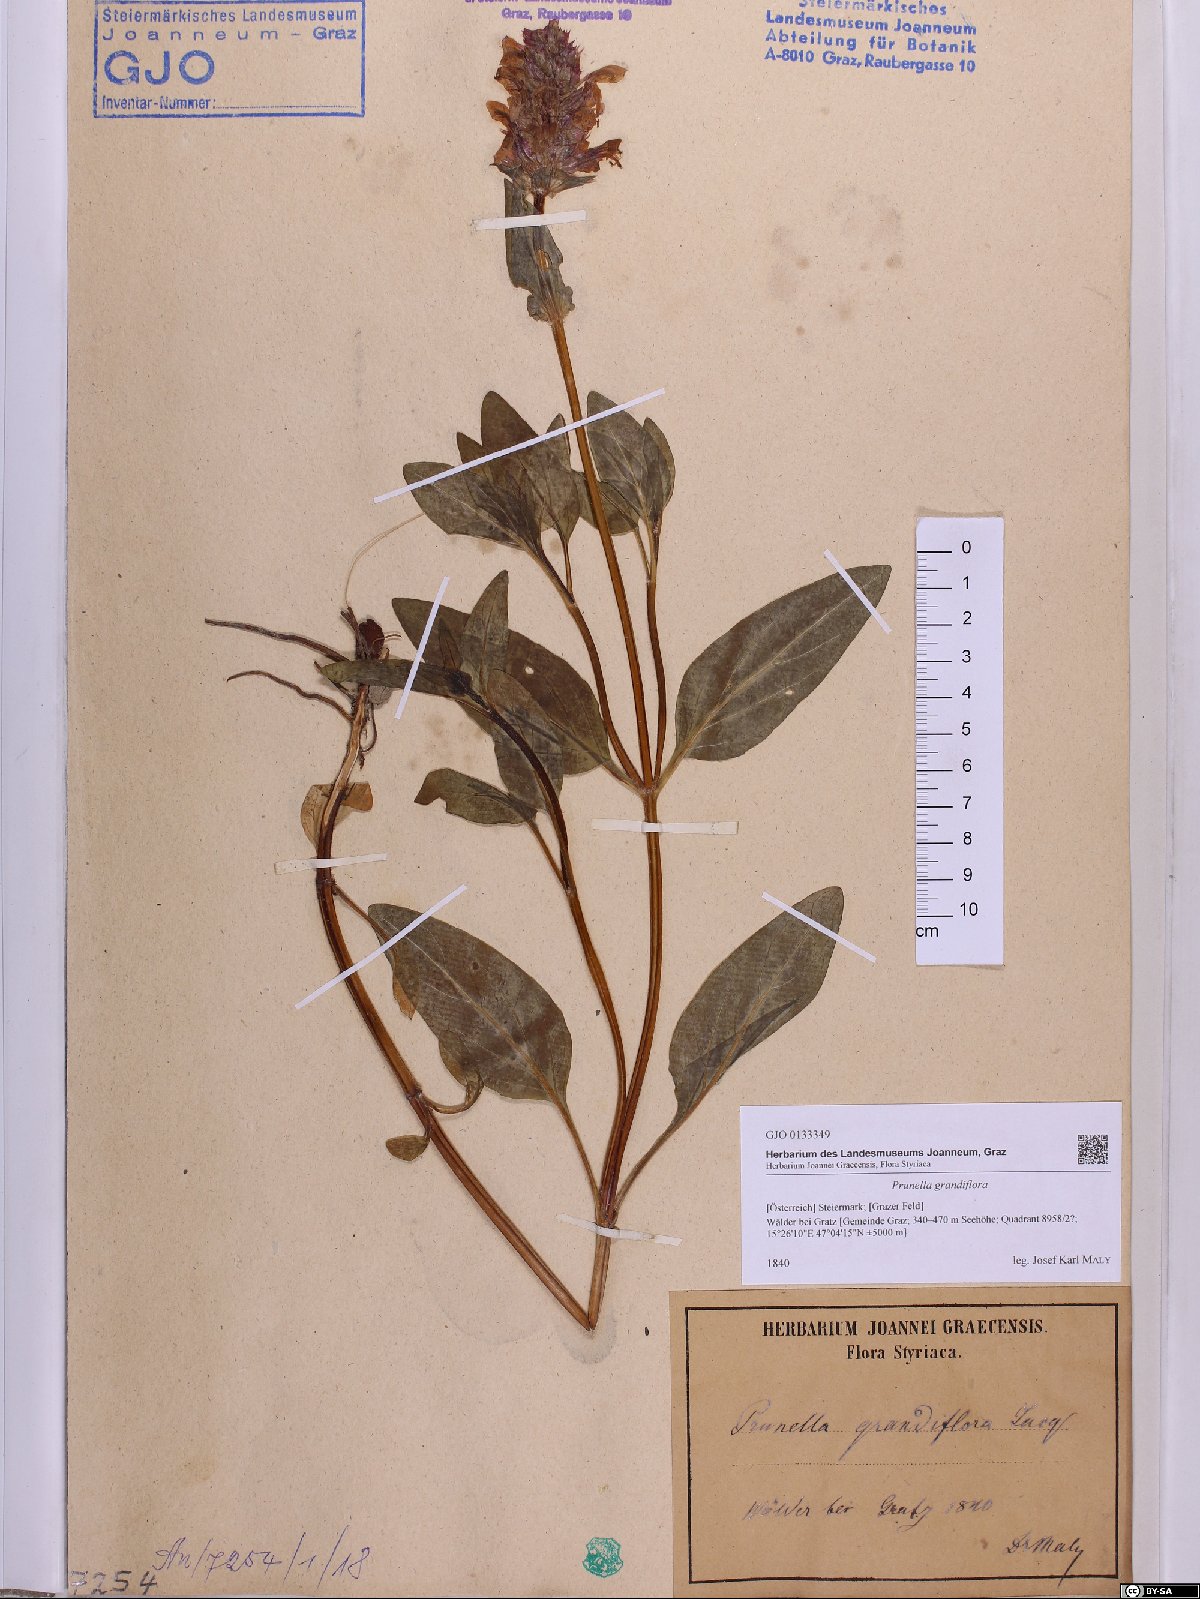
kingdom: Plantae
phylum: Tracheophyta
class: Magnoliopsida
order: Lamiales
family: Lamiaceae
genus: Prunella
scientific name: Prunella grandiflora
